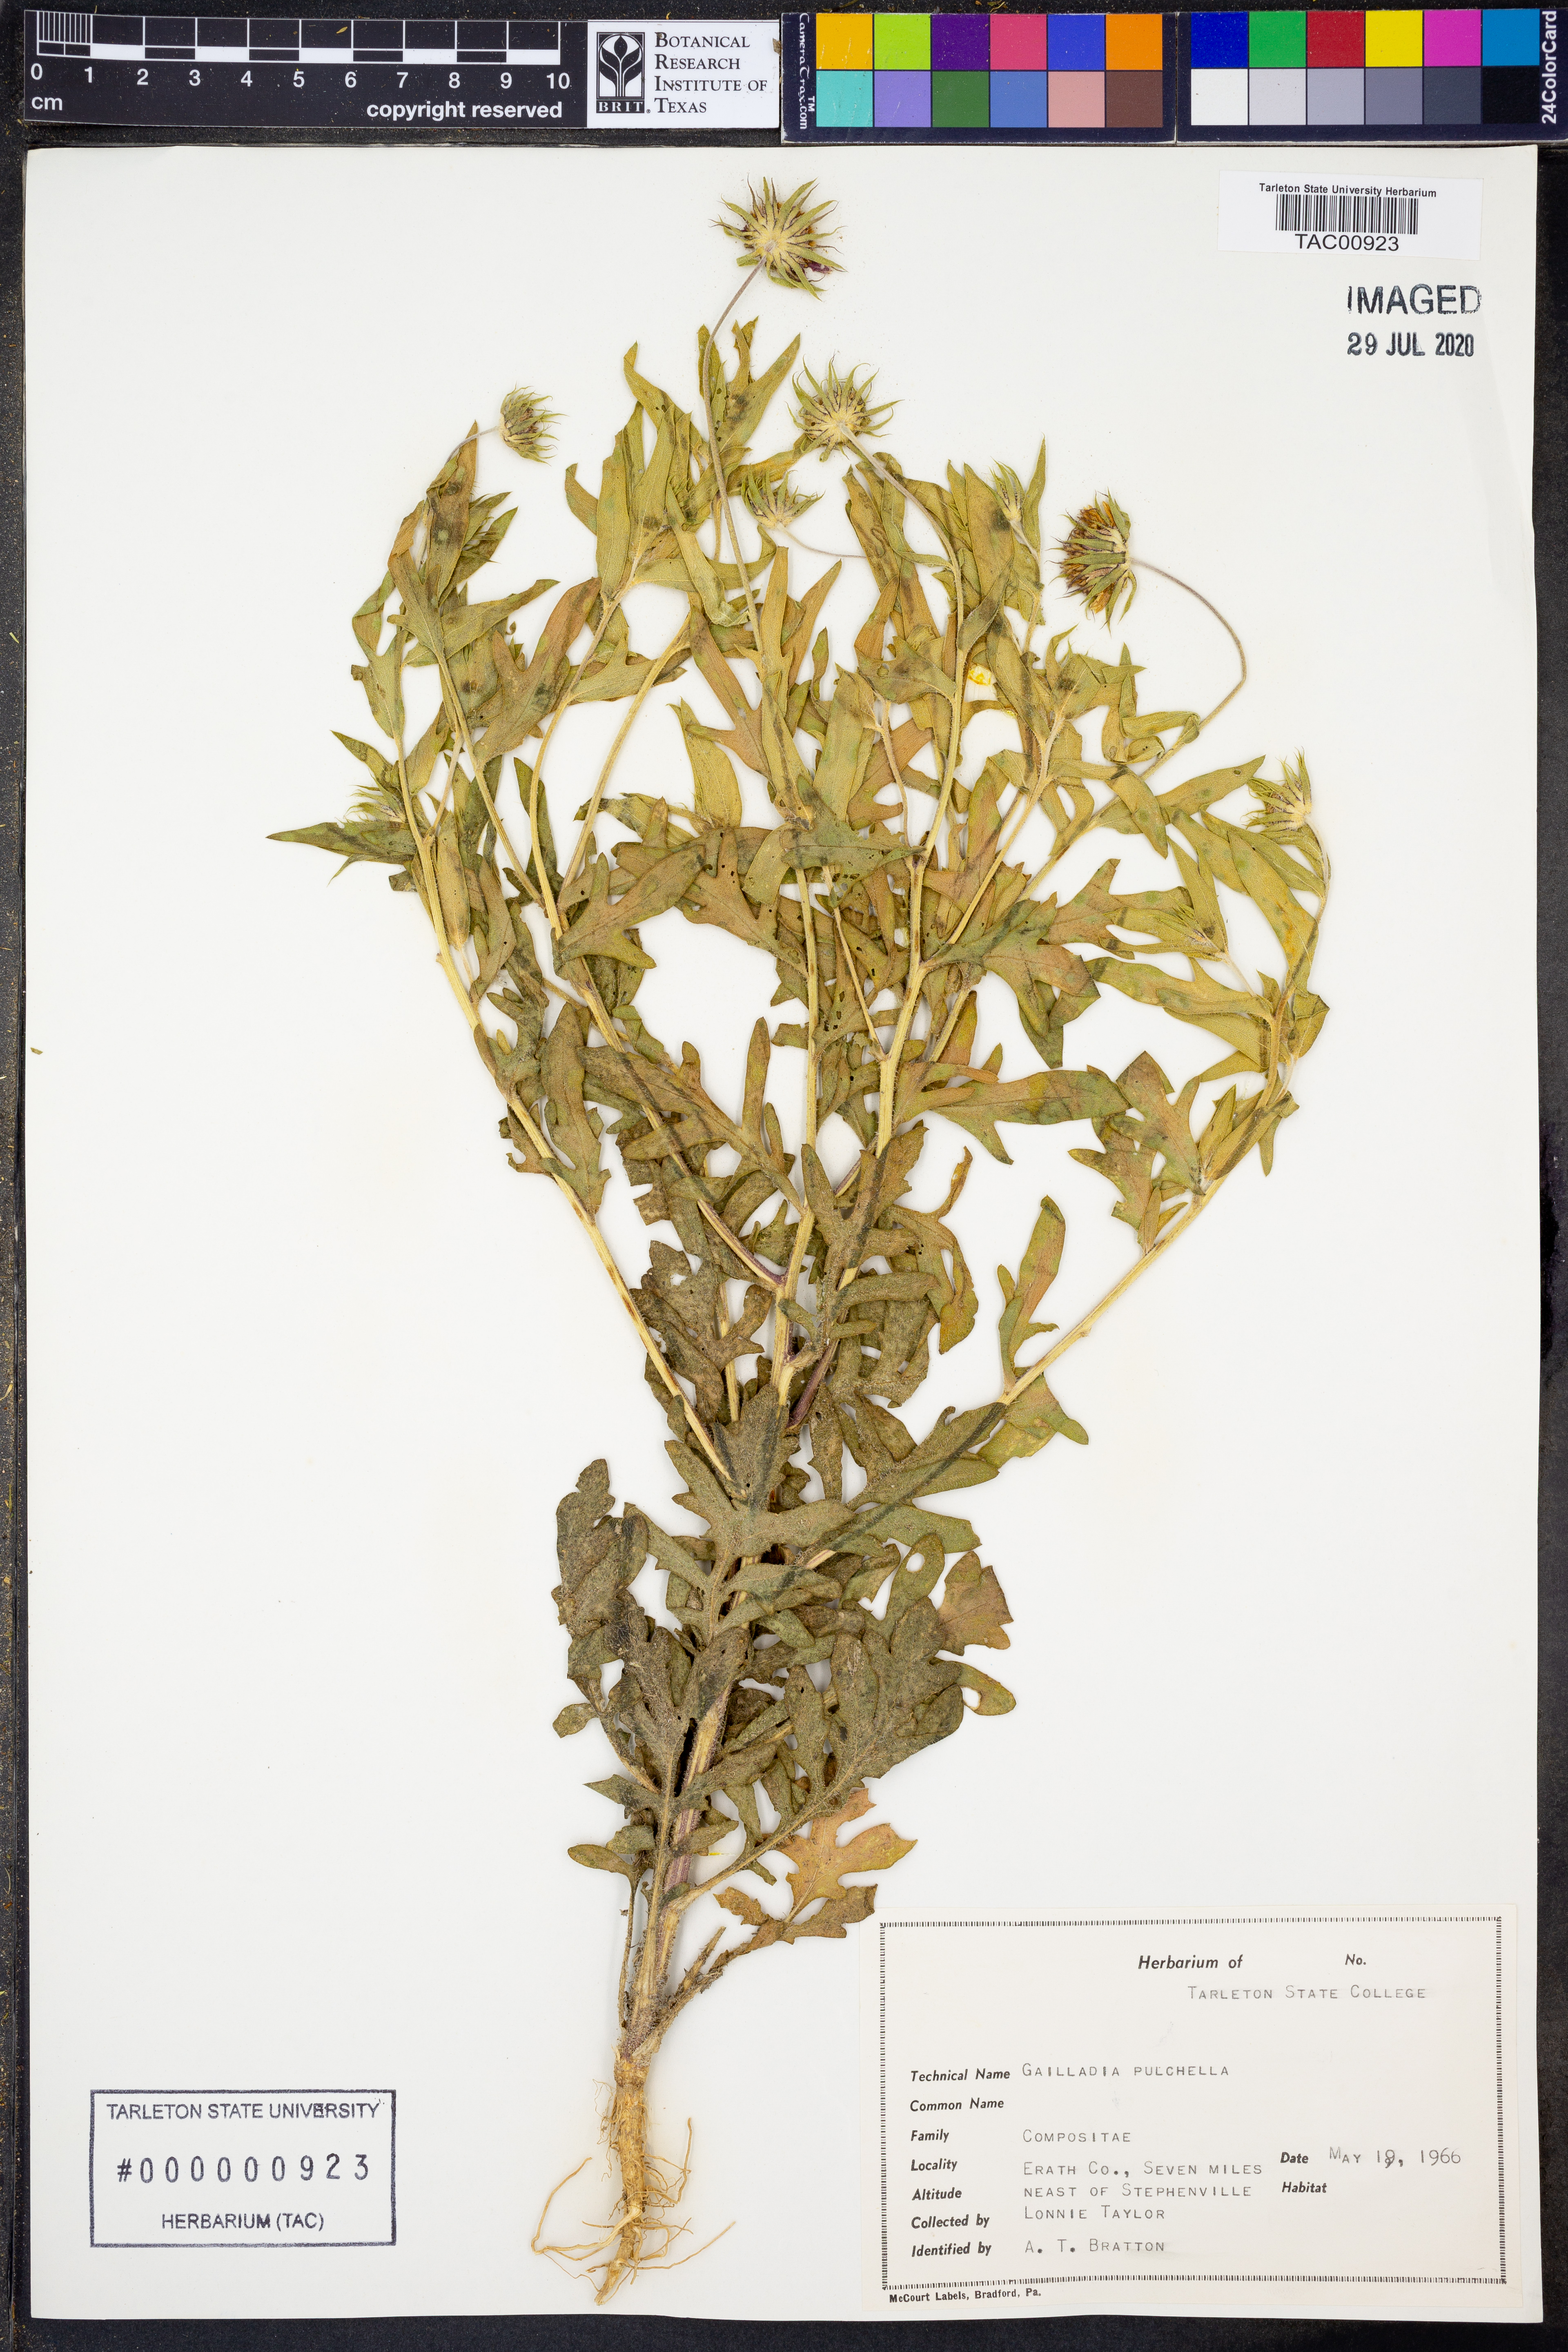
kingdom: Plantae
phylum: Tracheophyta
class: Magnoliopsida
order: Asterales
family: Asteraceae
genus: Gaillardia
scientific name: Gaillardia pulchella
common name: Firewheel
